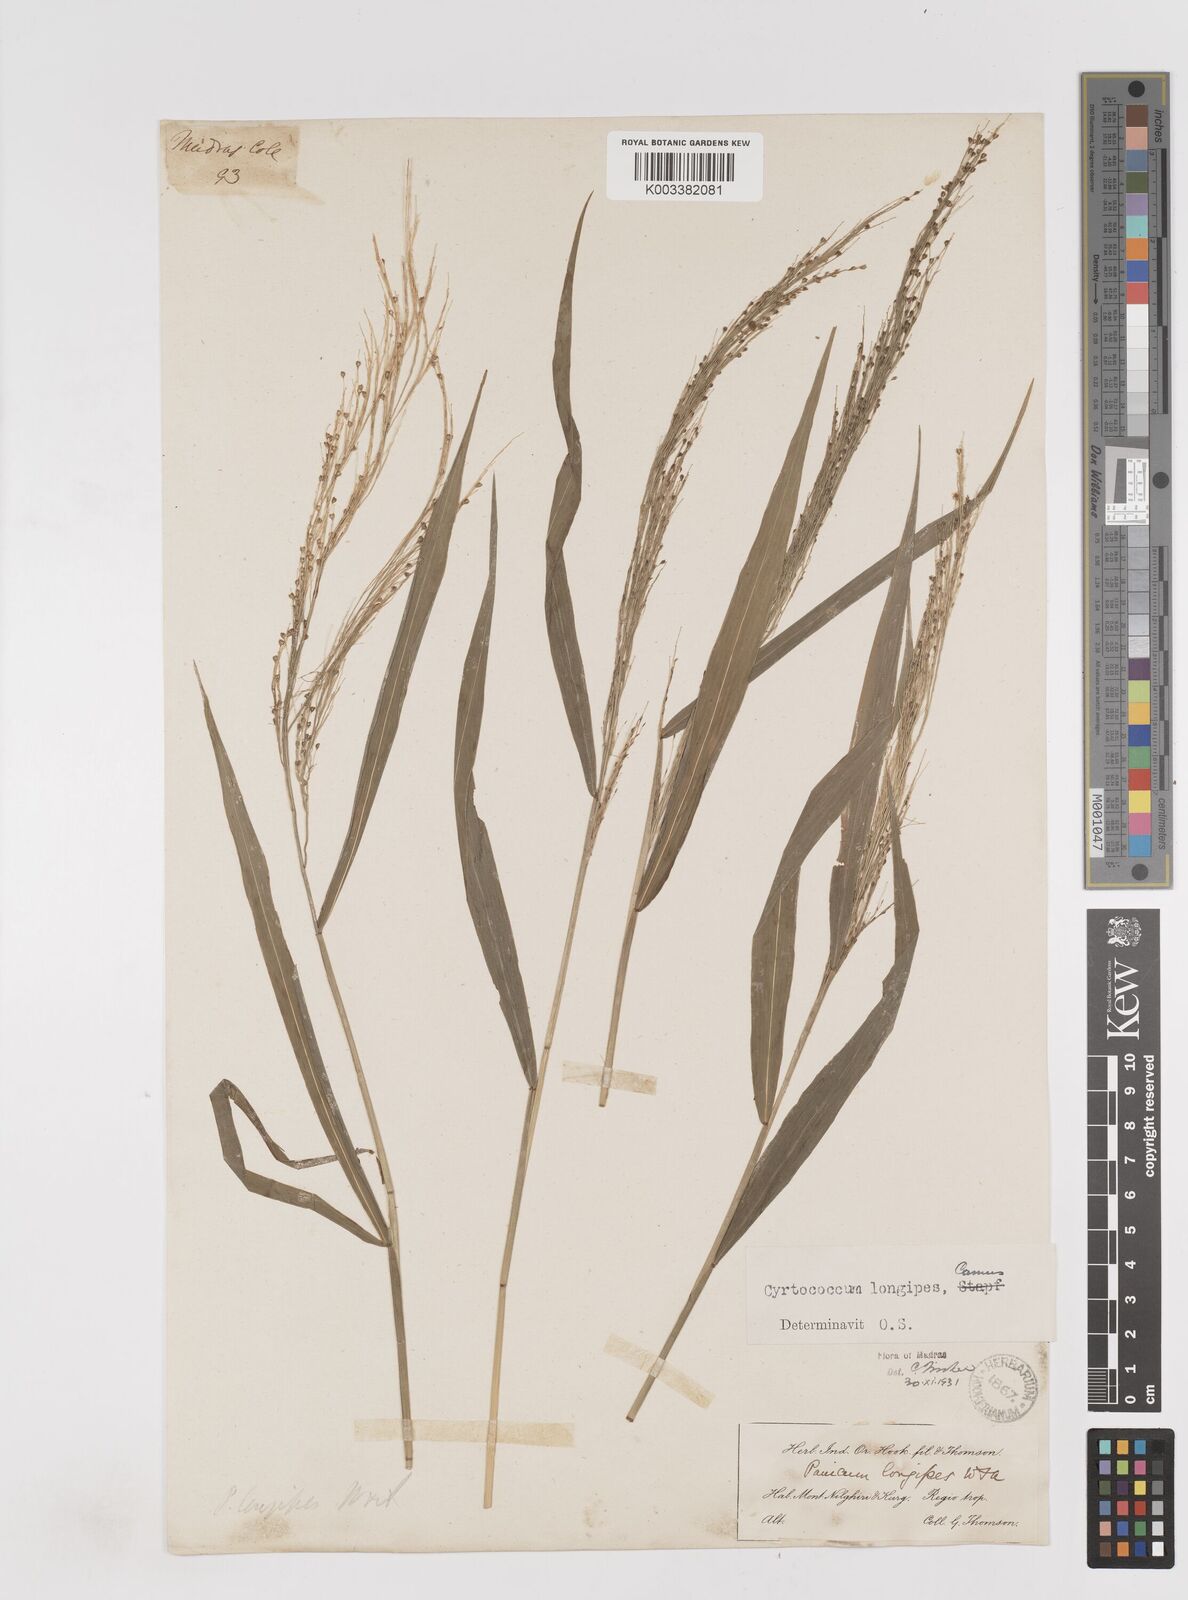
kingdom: Plantae
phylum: Tracheophyta
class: Liliopsida
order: Poales
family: Poaceae
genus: Cyrtococcum
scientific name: Cyrtococcum longipes
